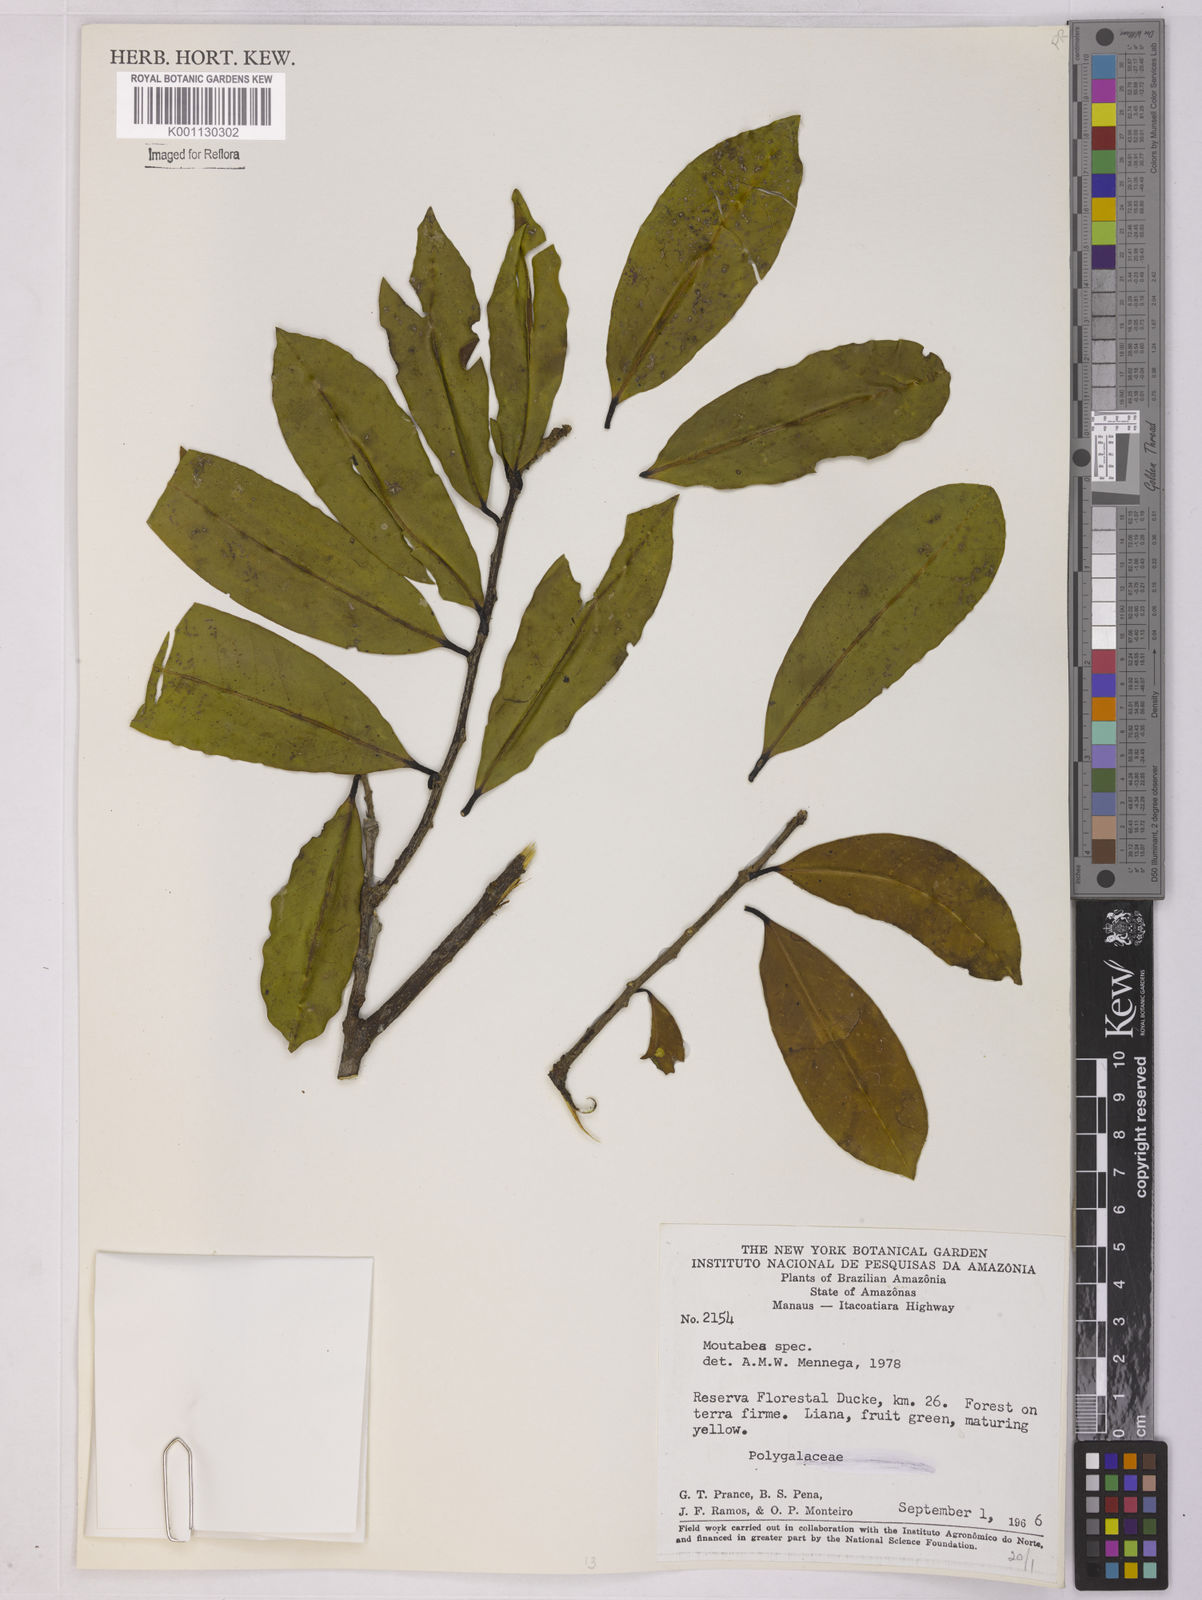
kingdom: Plantae
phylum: Tracheophyta
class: Magnoliopsida
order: Fabales
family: Polygalaceae
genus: Moutabea
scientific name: Moutabea
